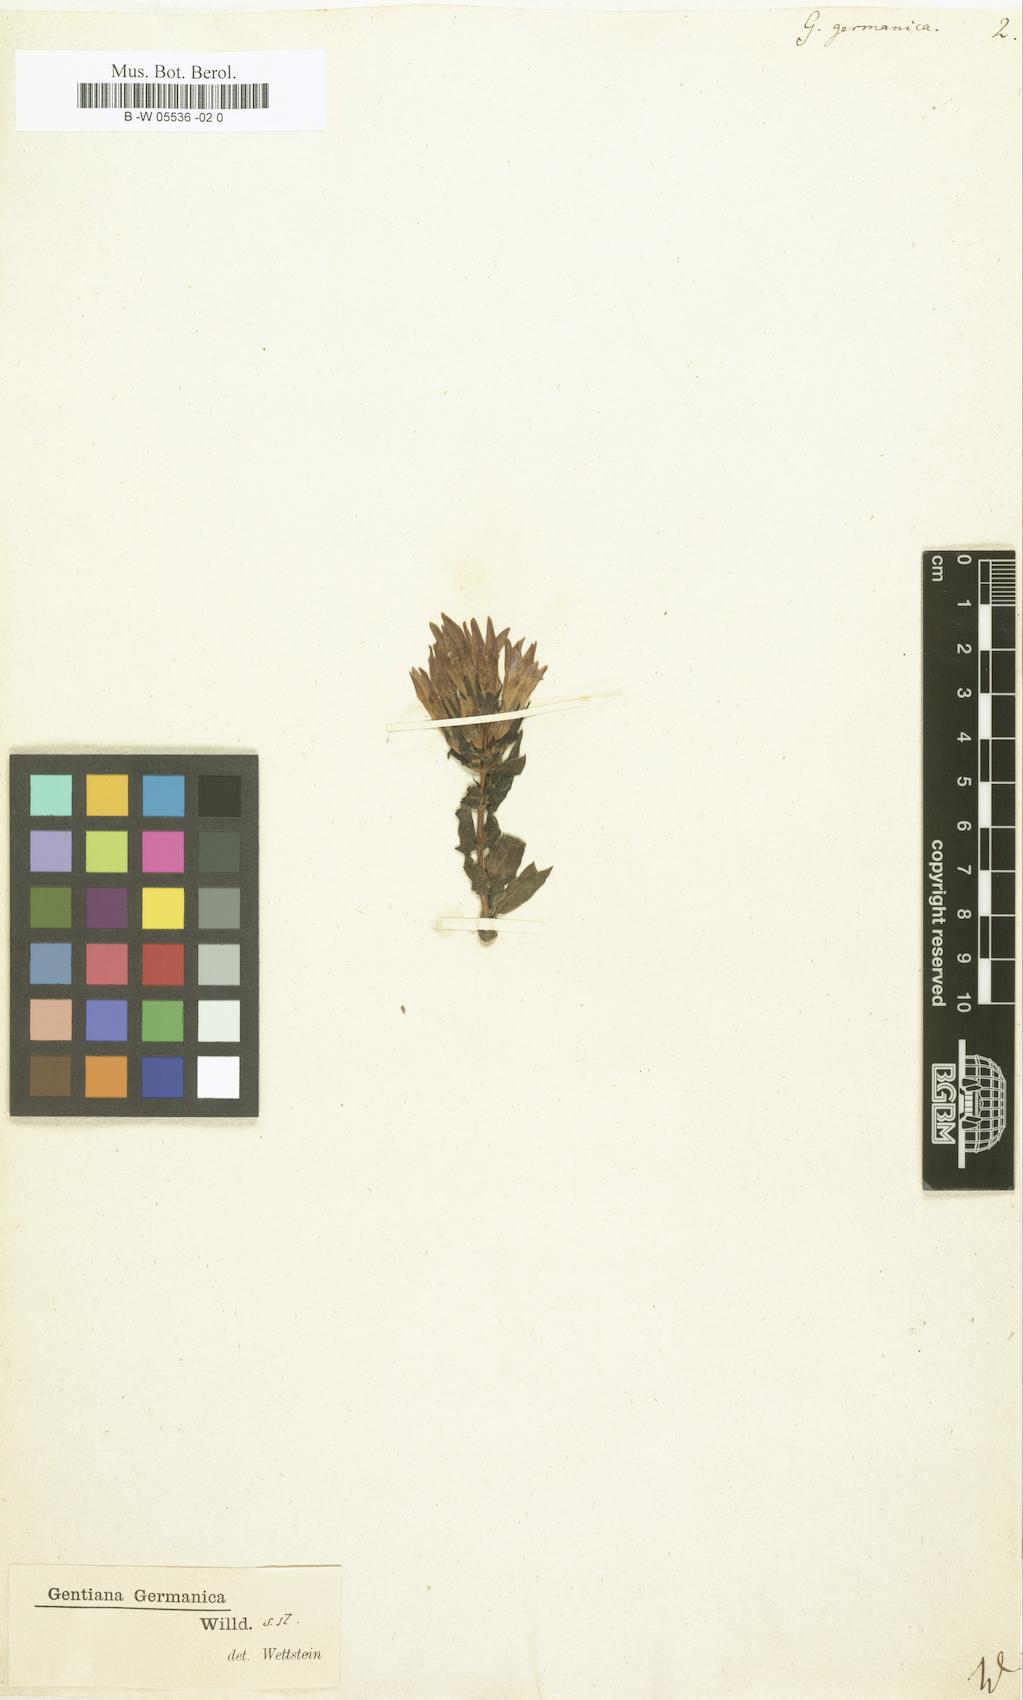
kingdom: Plantae
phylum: Tracheophyta
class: Magnoliopsida
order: Gentianales
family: Gentianaceae
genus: Gentianella
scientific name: Gentianella
